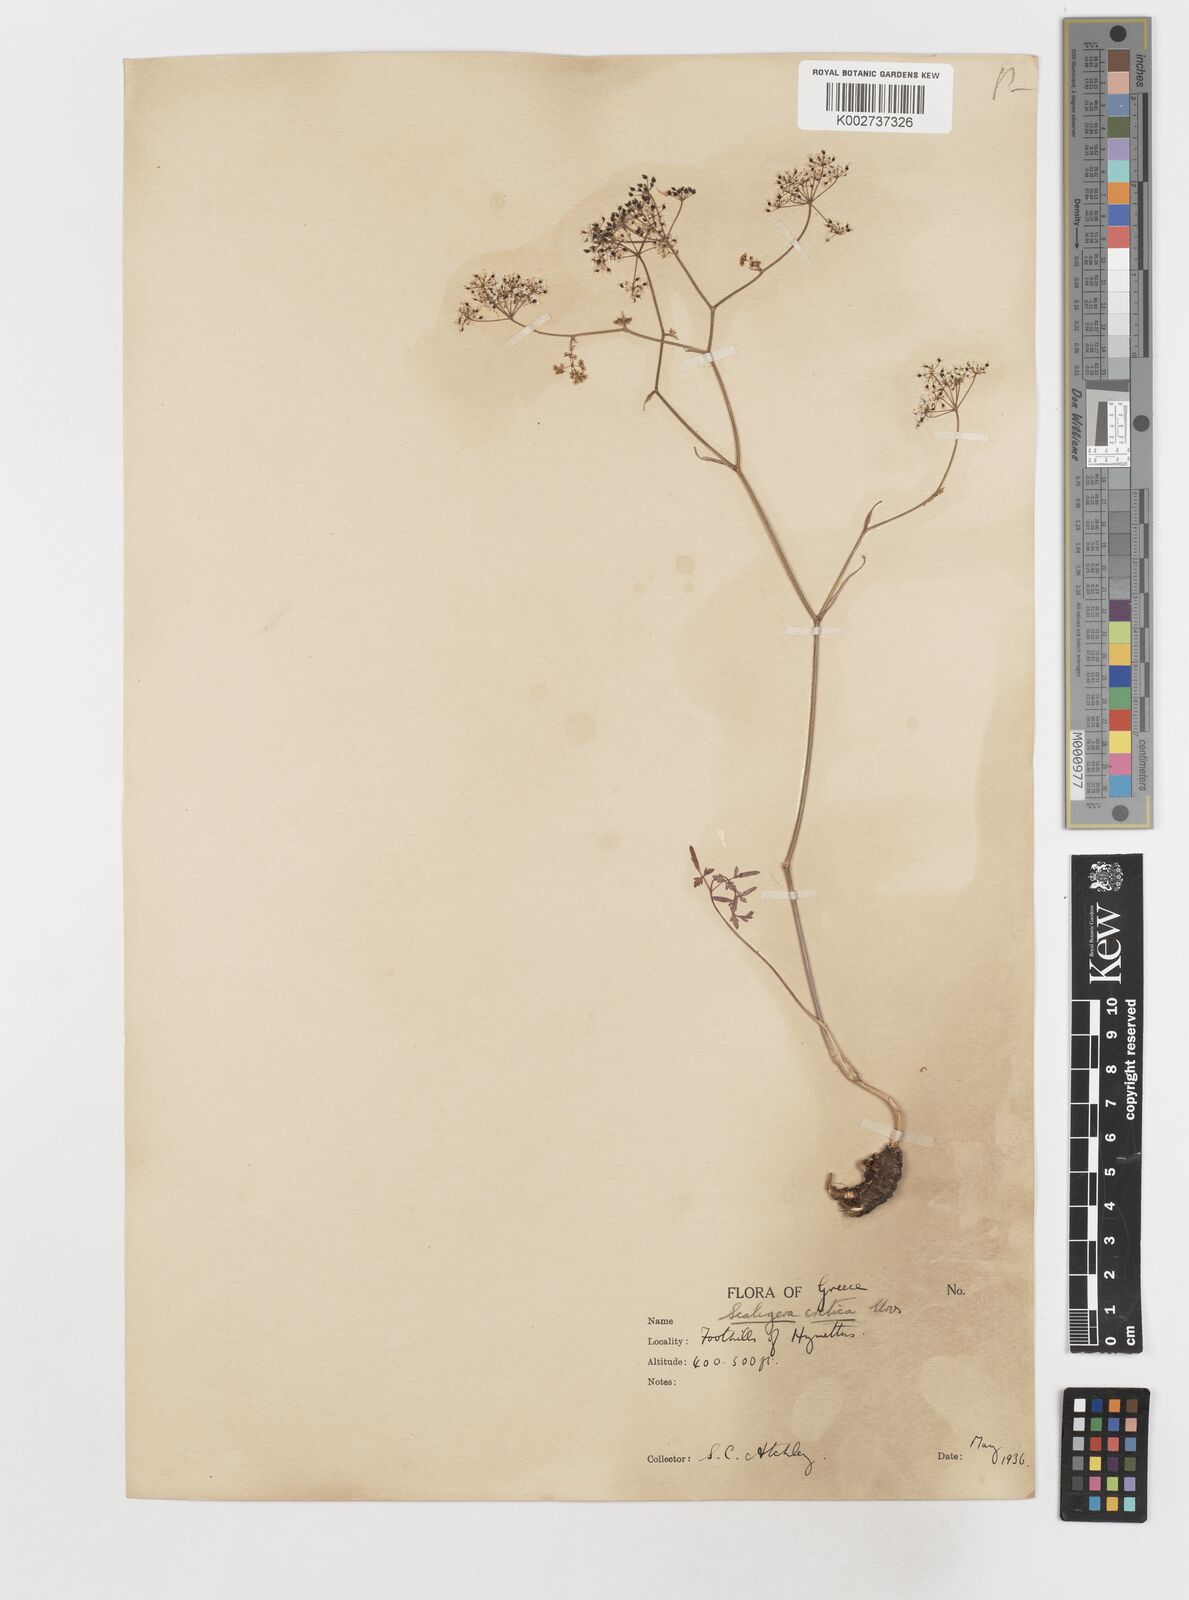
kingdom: Plantae
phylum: Tracheophyta
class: Magnoliopsida
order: Apiales
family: Apiaceae
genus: Scaligeria
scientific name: Scaligeria napiformis
